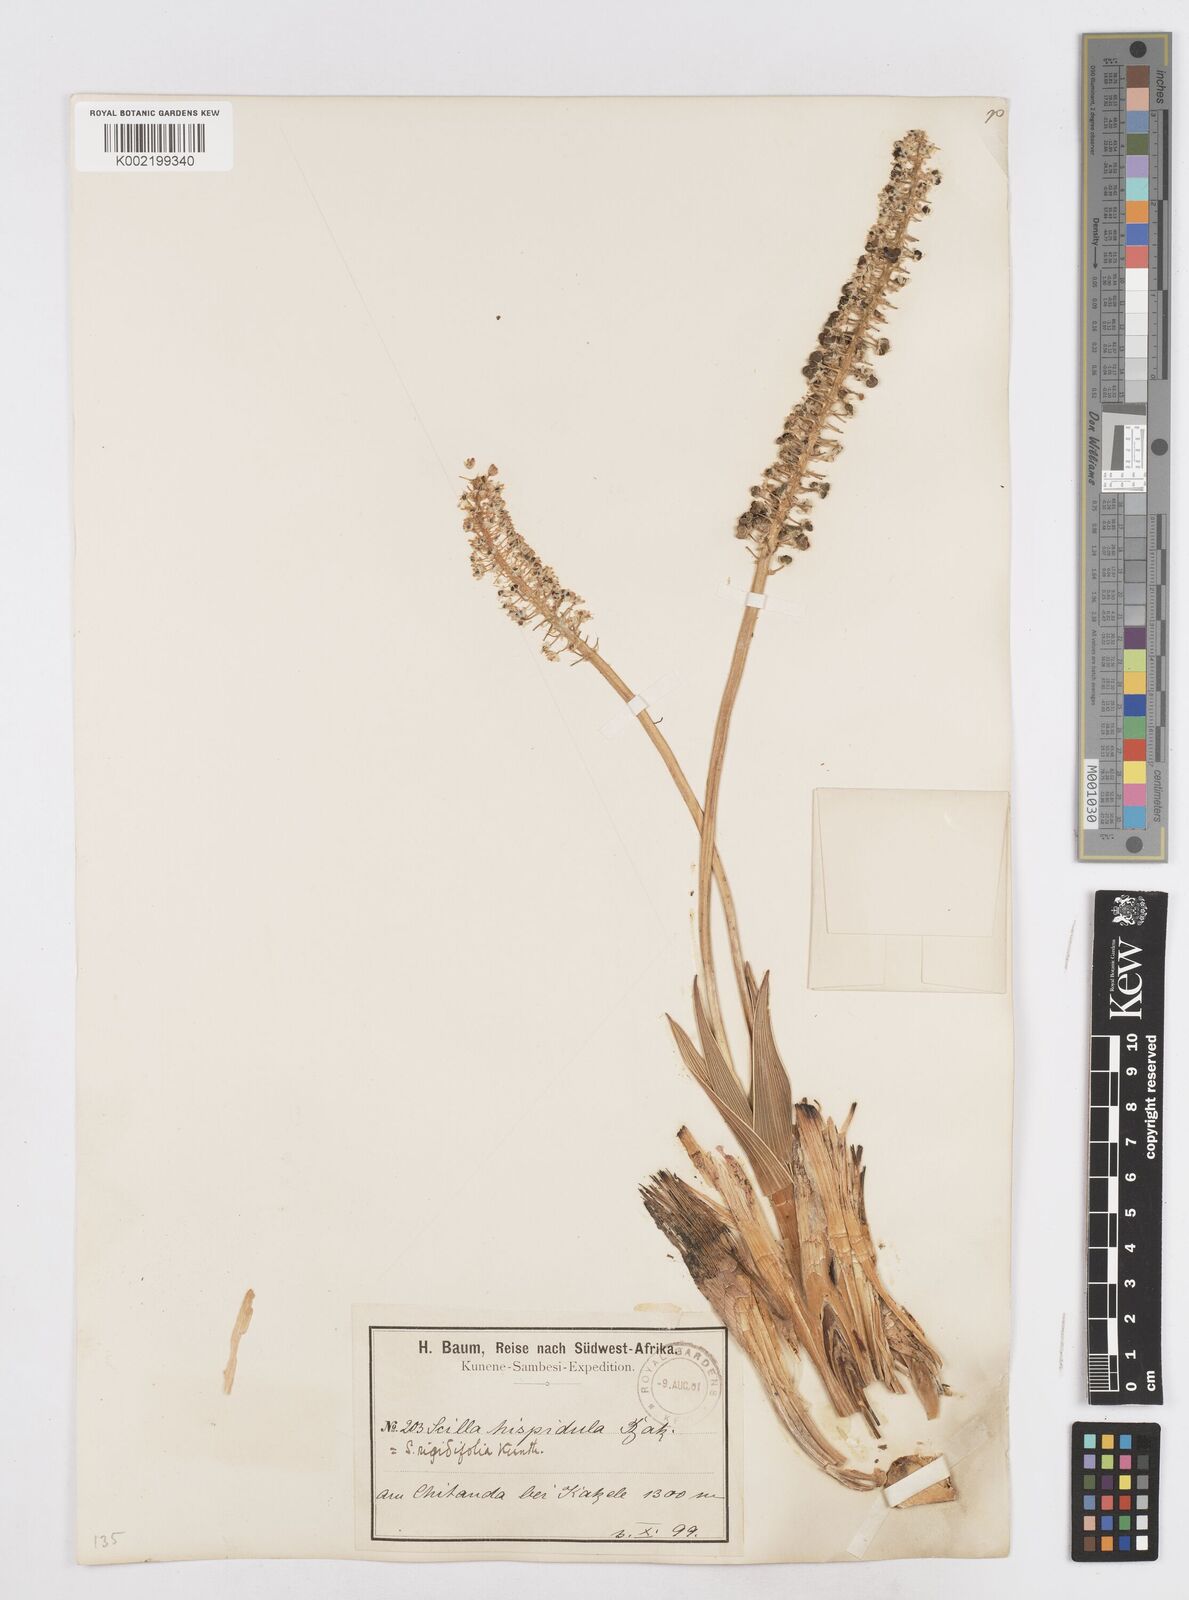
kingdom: Plantae
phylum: Tracheophyta
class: Liliopsida
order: Asparagales
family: Asparagaceae
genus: Schizocarphus
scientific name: Schizocarphus nervosus
